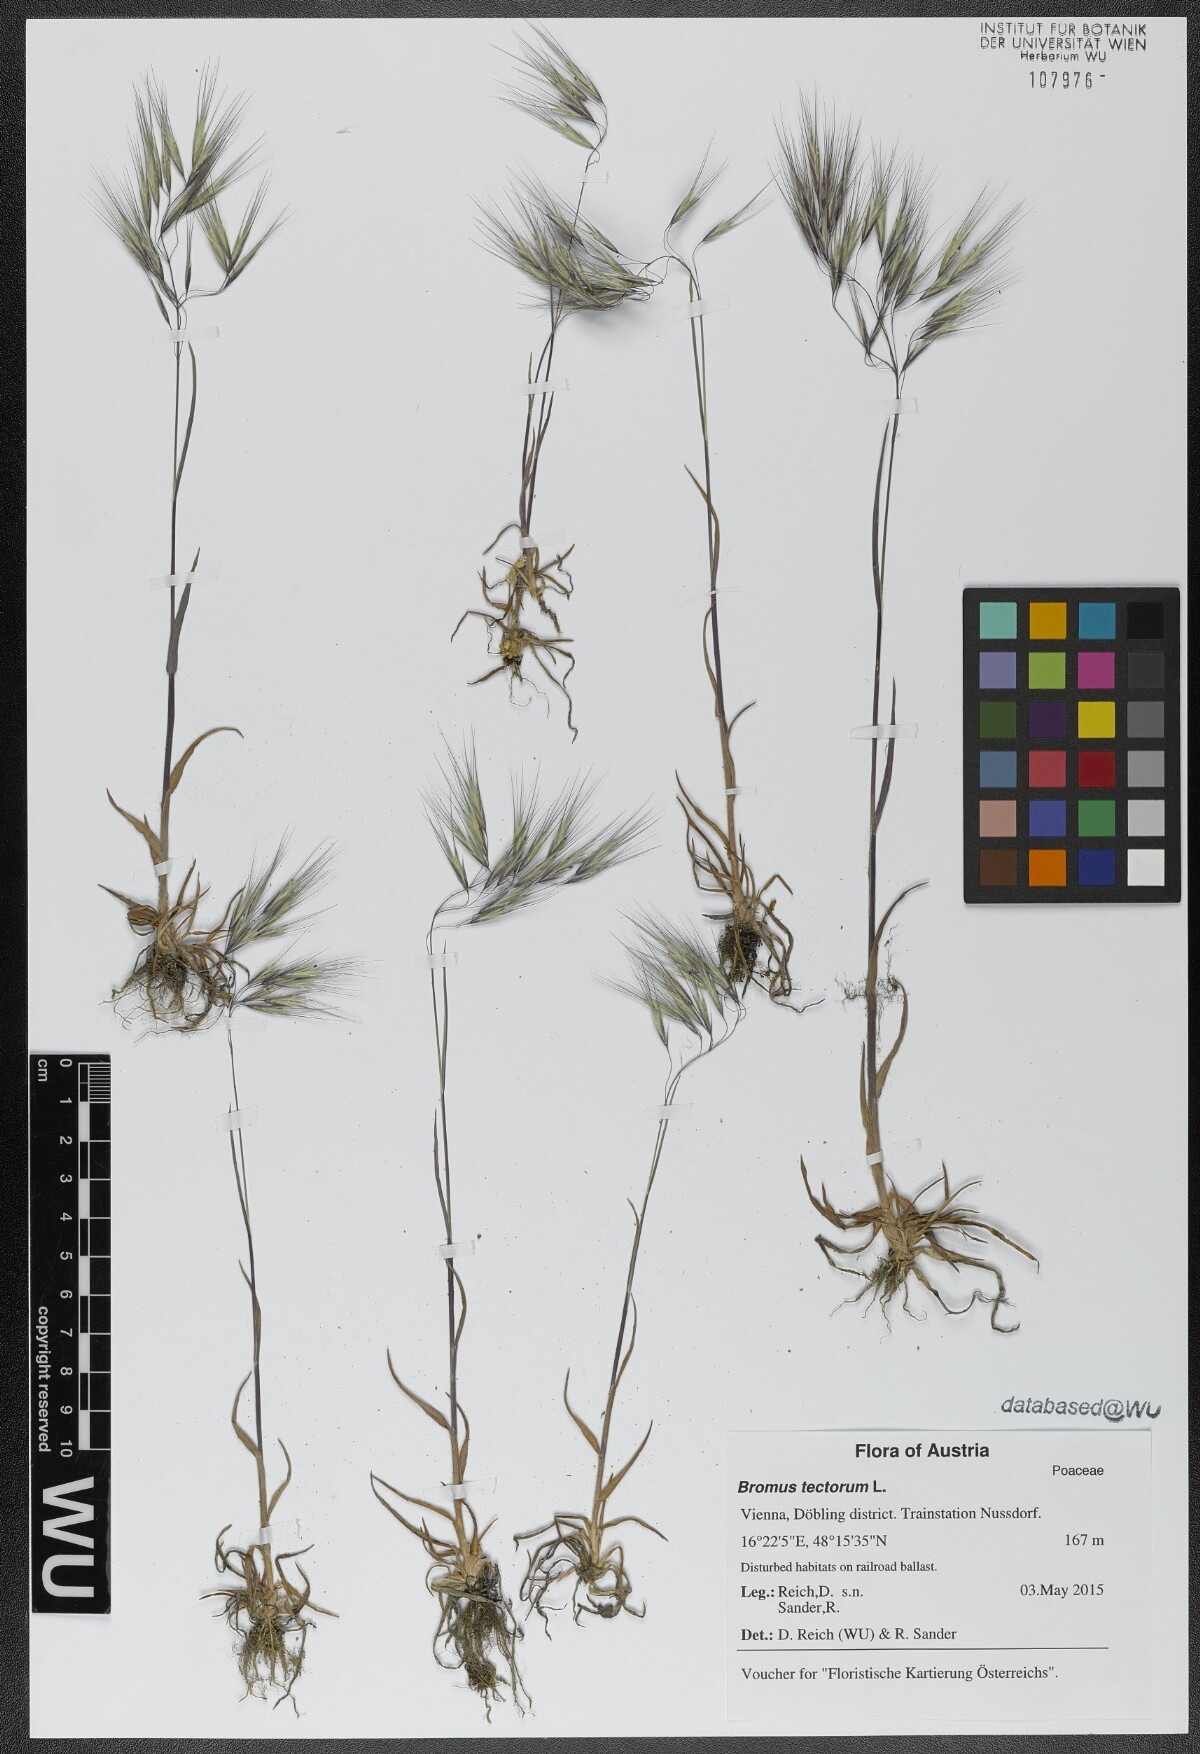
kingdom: Plantae
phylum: Tracheophyta
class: Liliopsida
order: Poales
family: Poaceae
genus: Bromus
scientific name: Bromus tectorum
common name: Cheatgrass
